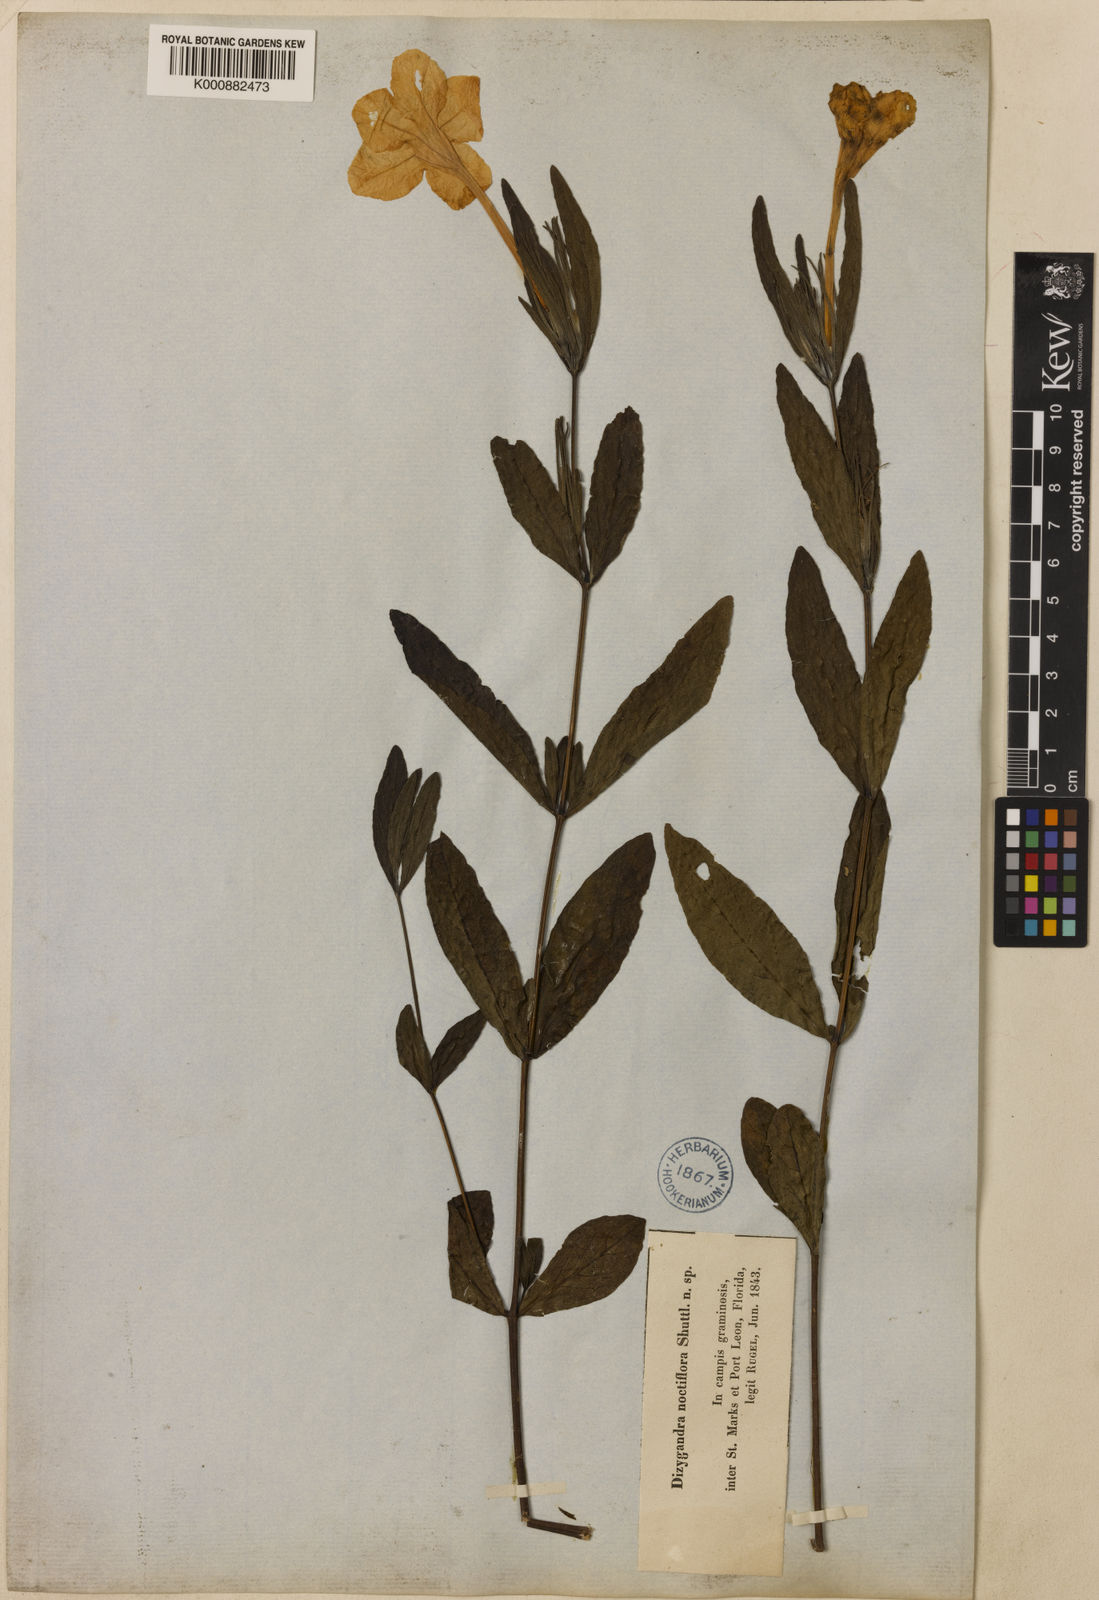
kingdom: Plantae
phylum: Tracheophyta
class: Magnoliopsida
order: Lamiales
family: Acanthaceae
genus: Ruellia
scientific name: Ruellia noctiflora
